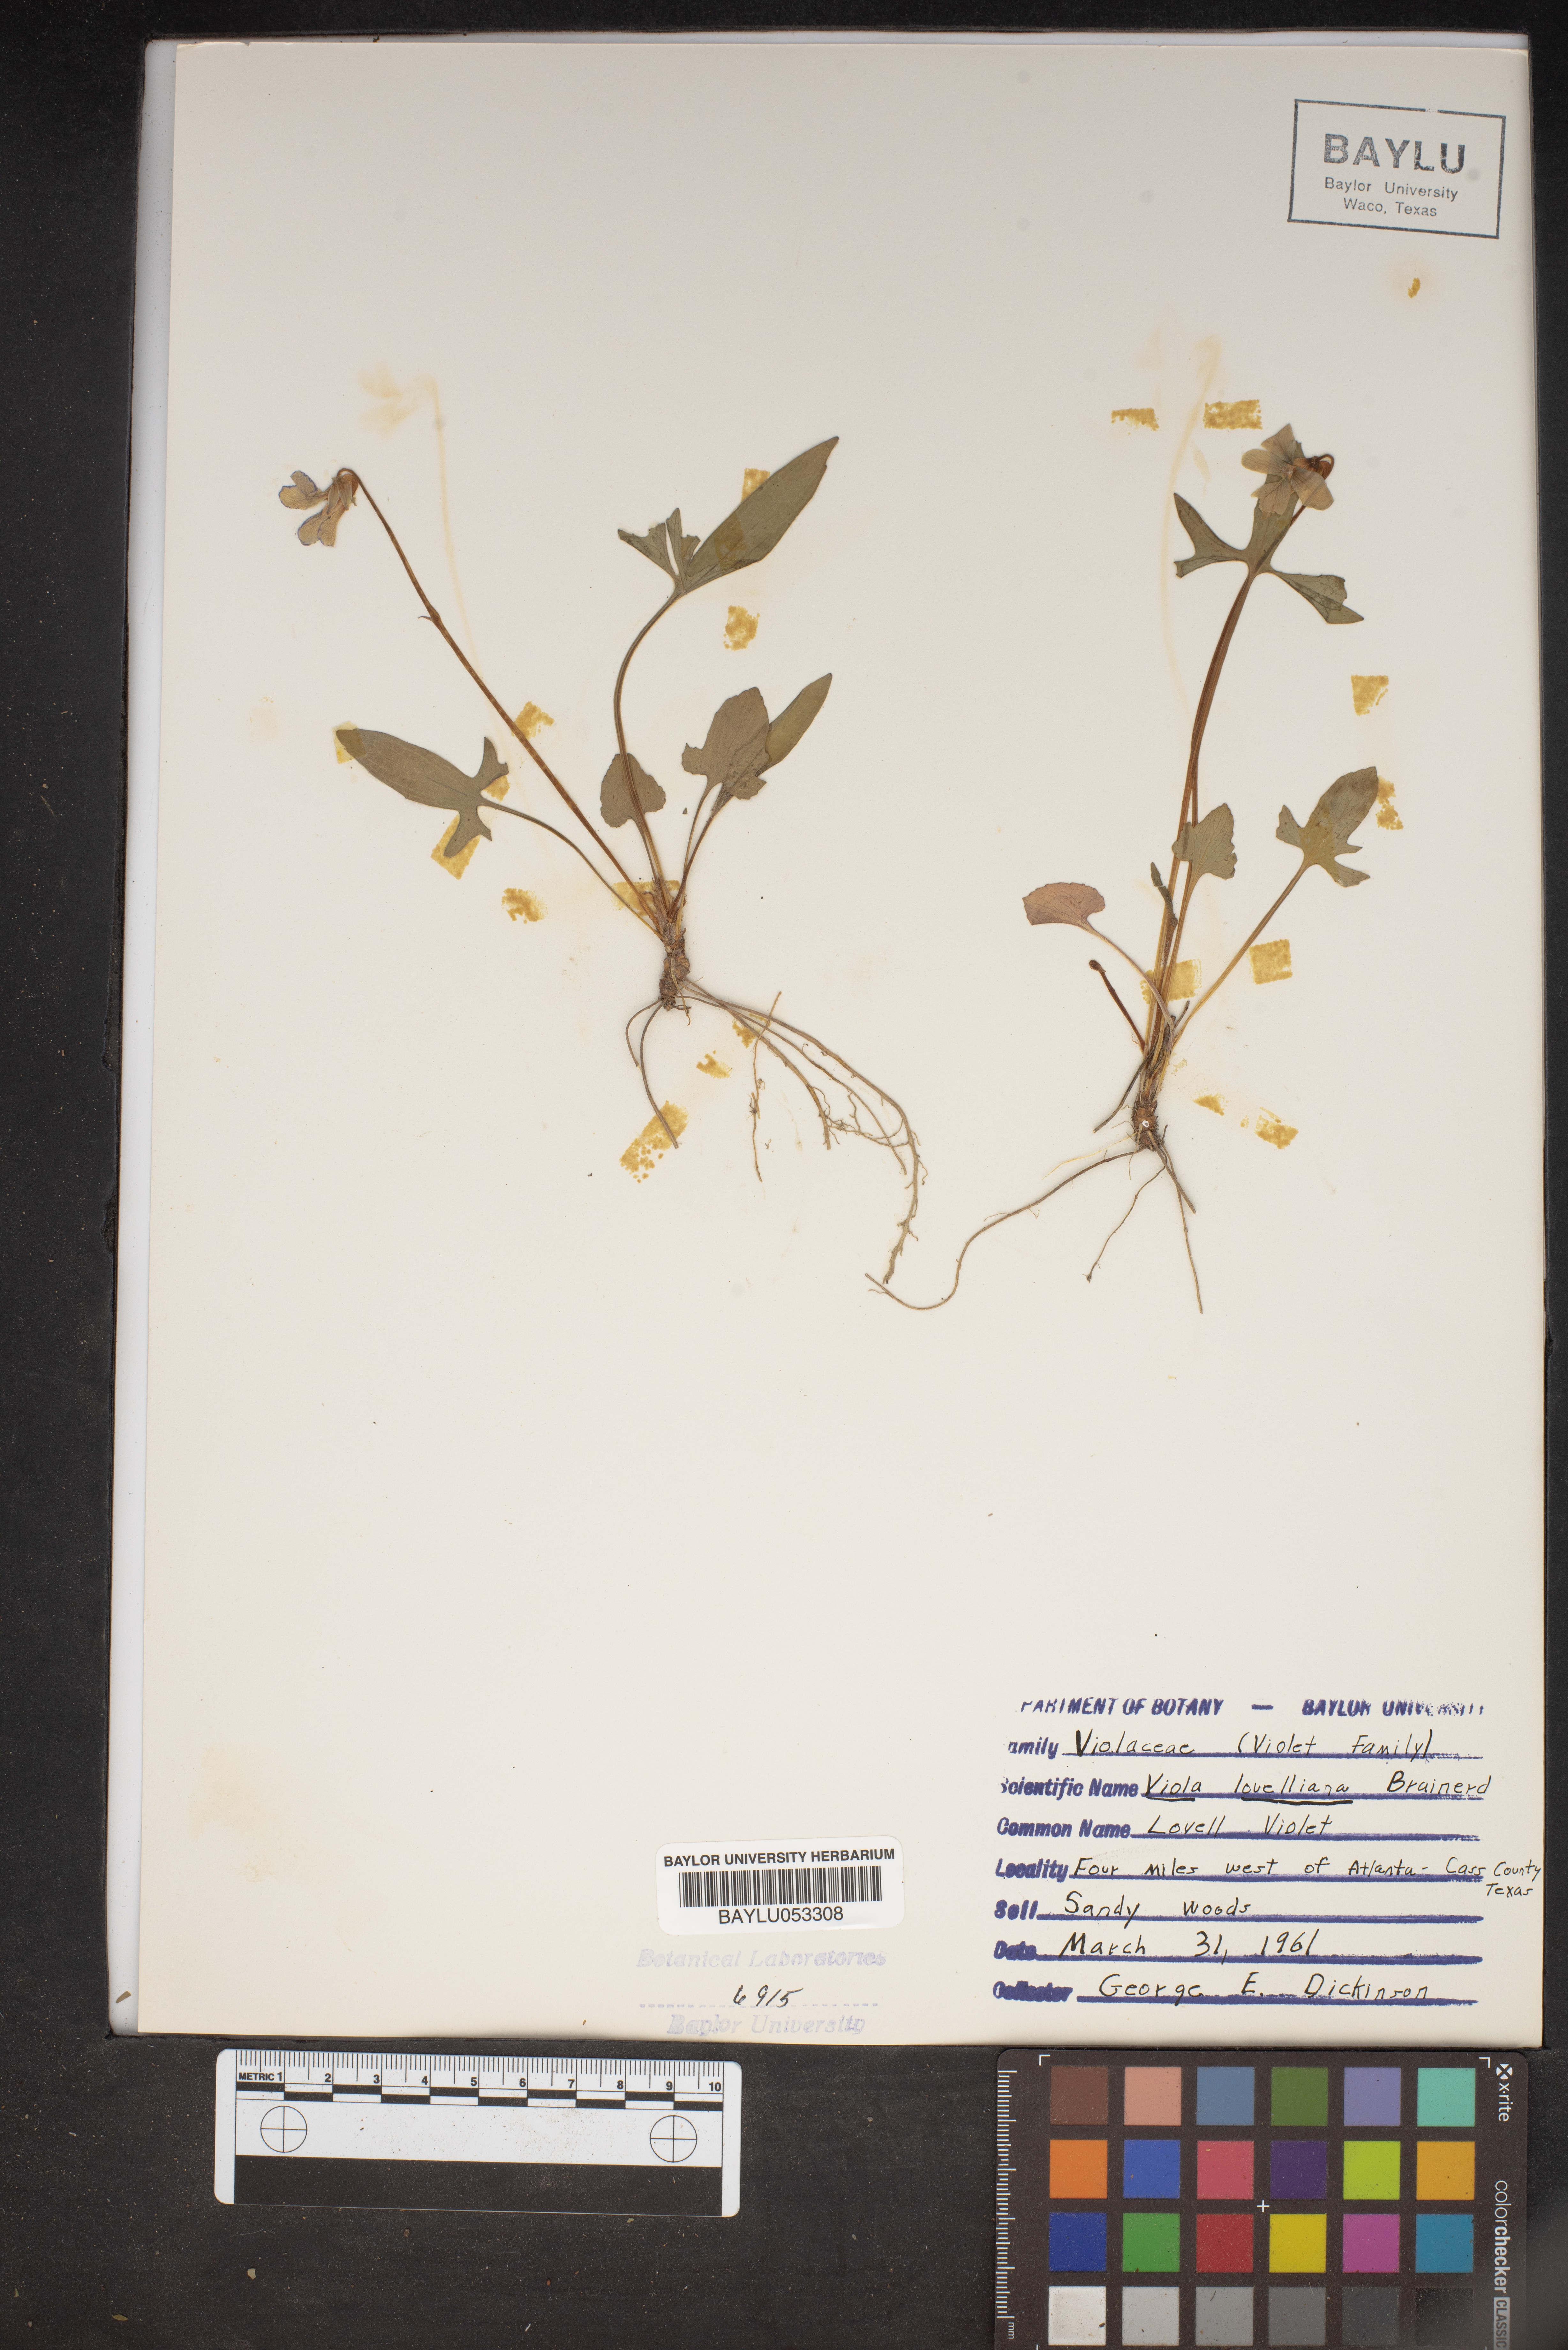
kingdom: Plantae
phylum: Tracheophyta
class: Magnoliopsida
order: Malpighiales
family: Violaceae
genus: Viola
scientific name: Viola lovelliana
